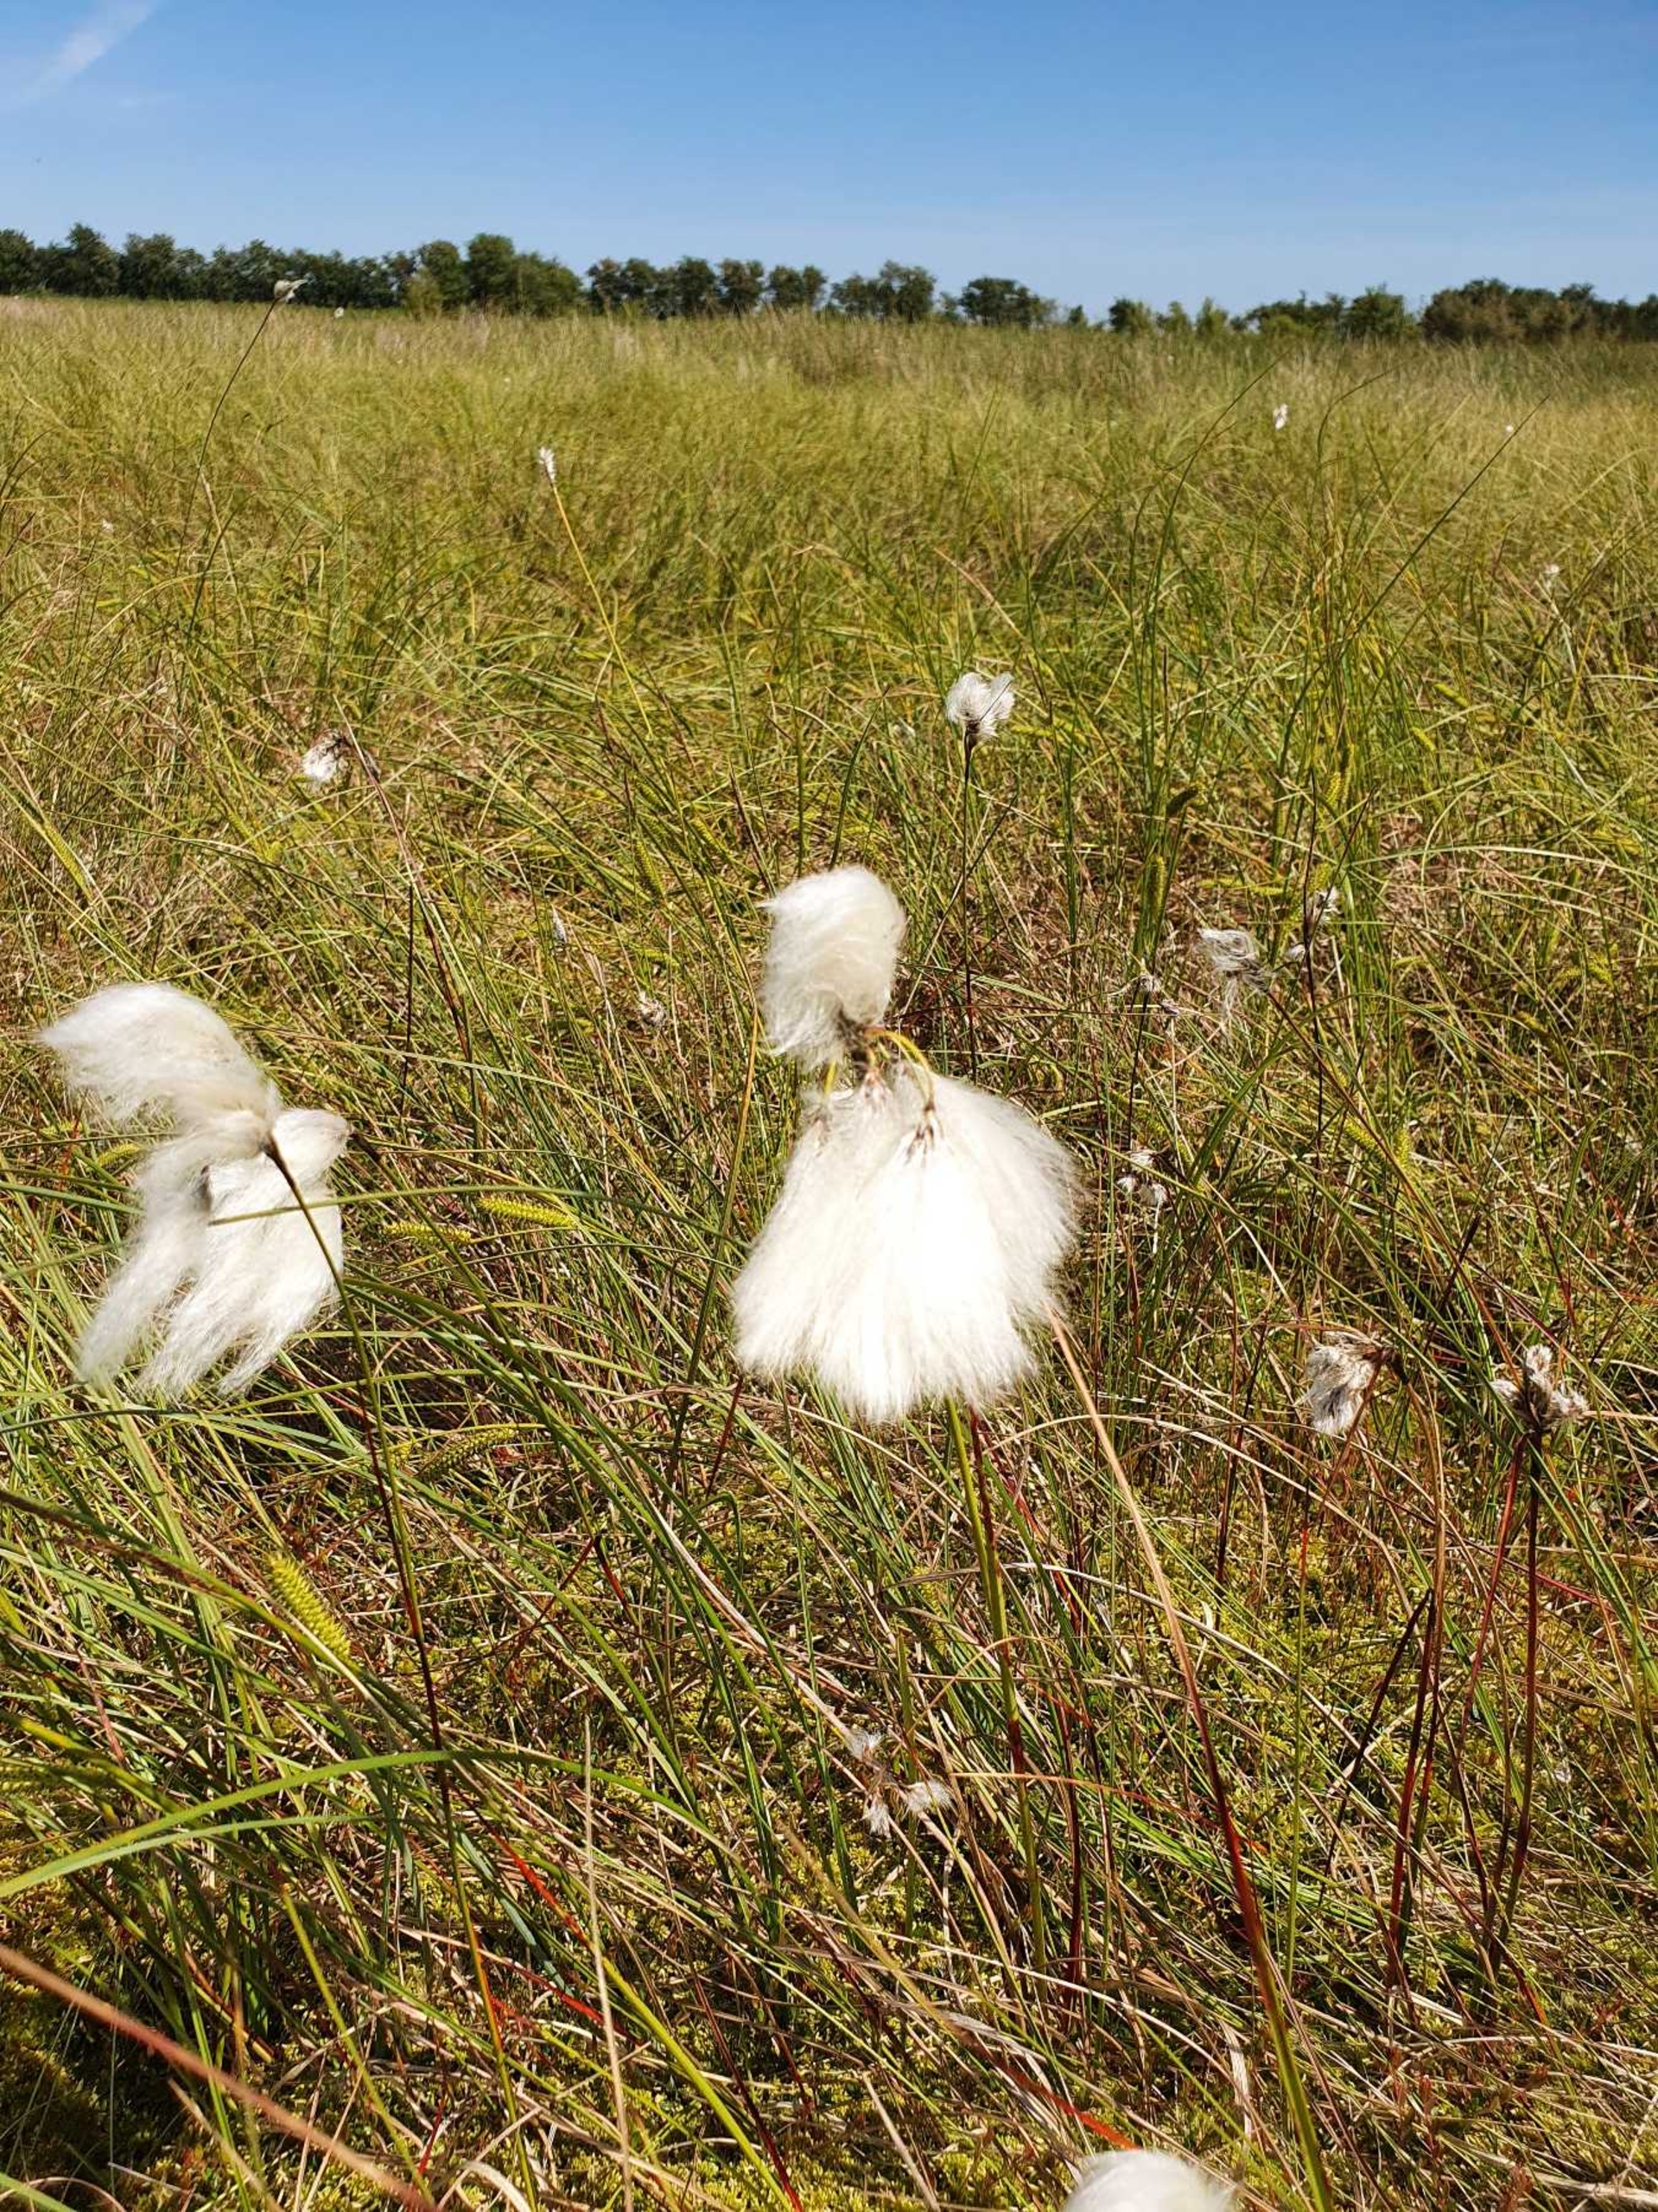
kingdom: Plantae
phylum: Tracheophyta
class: Liliopsida
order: Poales
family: Cyperaceae
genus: Eriophorum
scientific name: Eriophorum angustifolium
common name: Smalbladet kæruld
